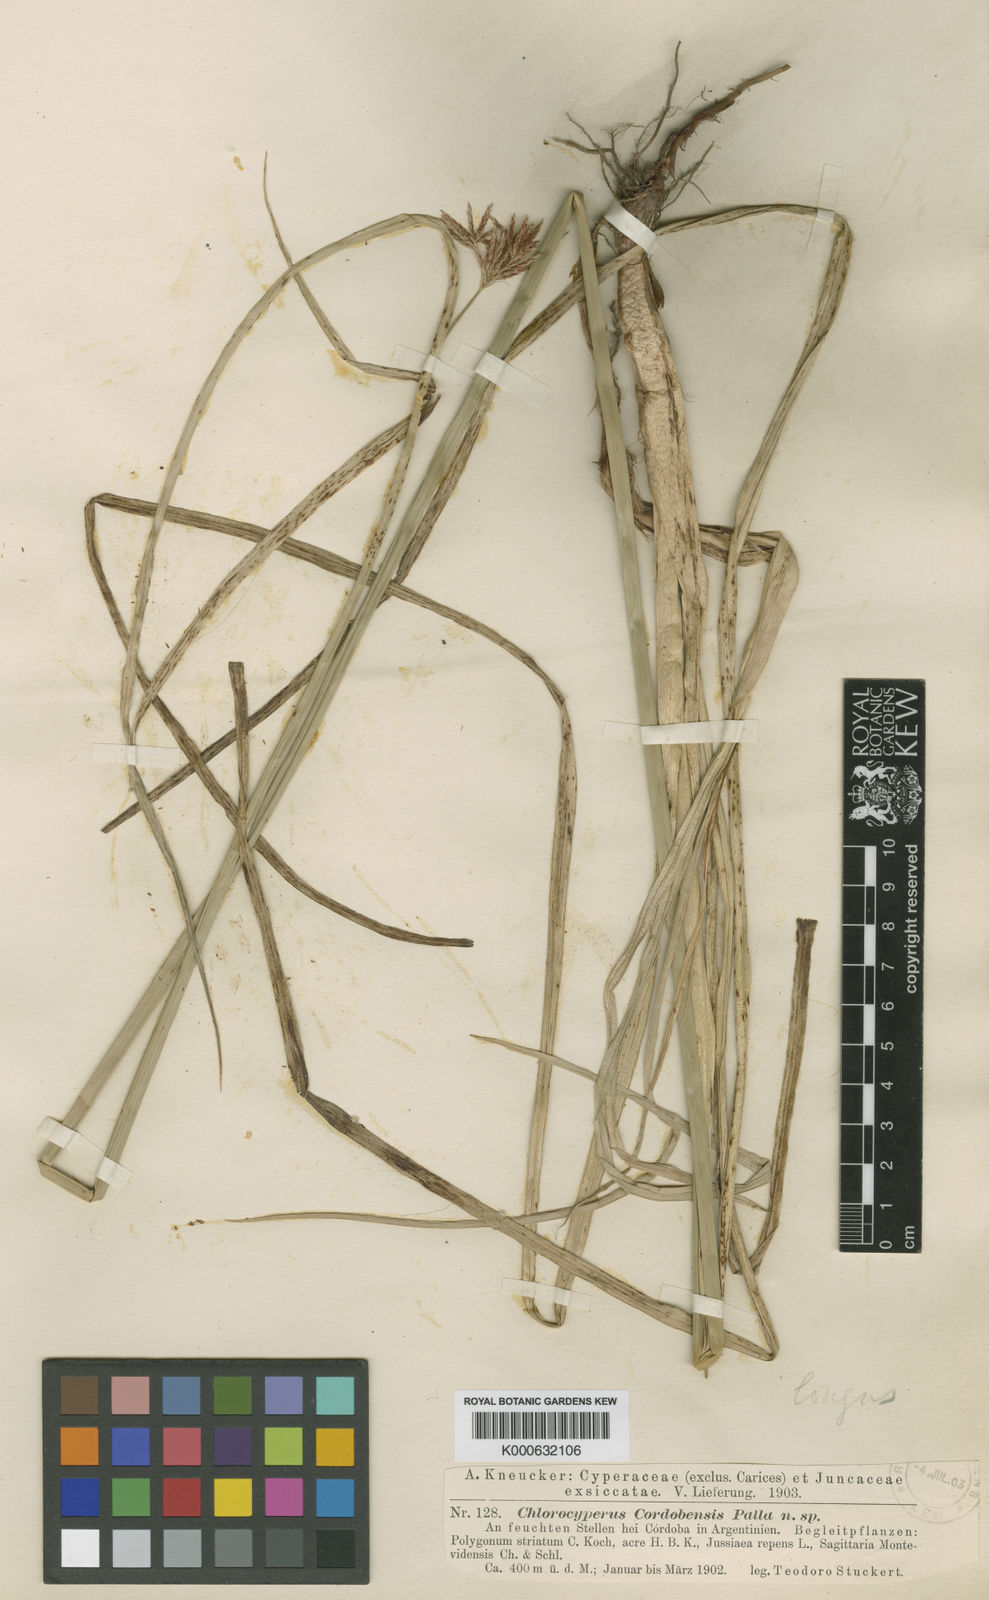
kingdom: Plantae
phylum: Tracheophyta
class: Liliopsida
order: Poales
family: Cyperaceae
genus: Cyperus
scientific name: Cyperus corymbosus
